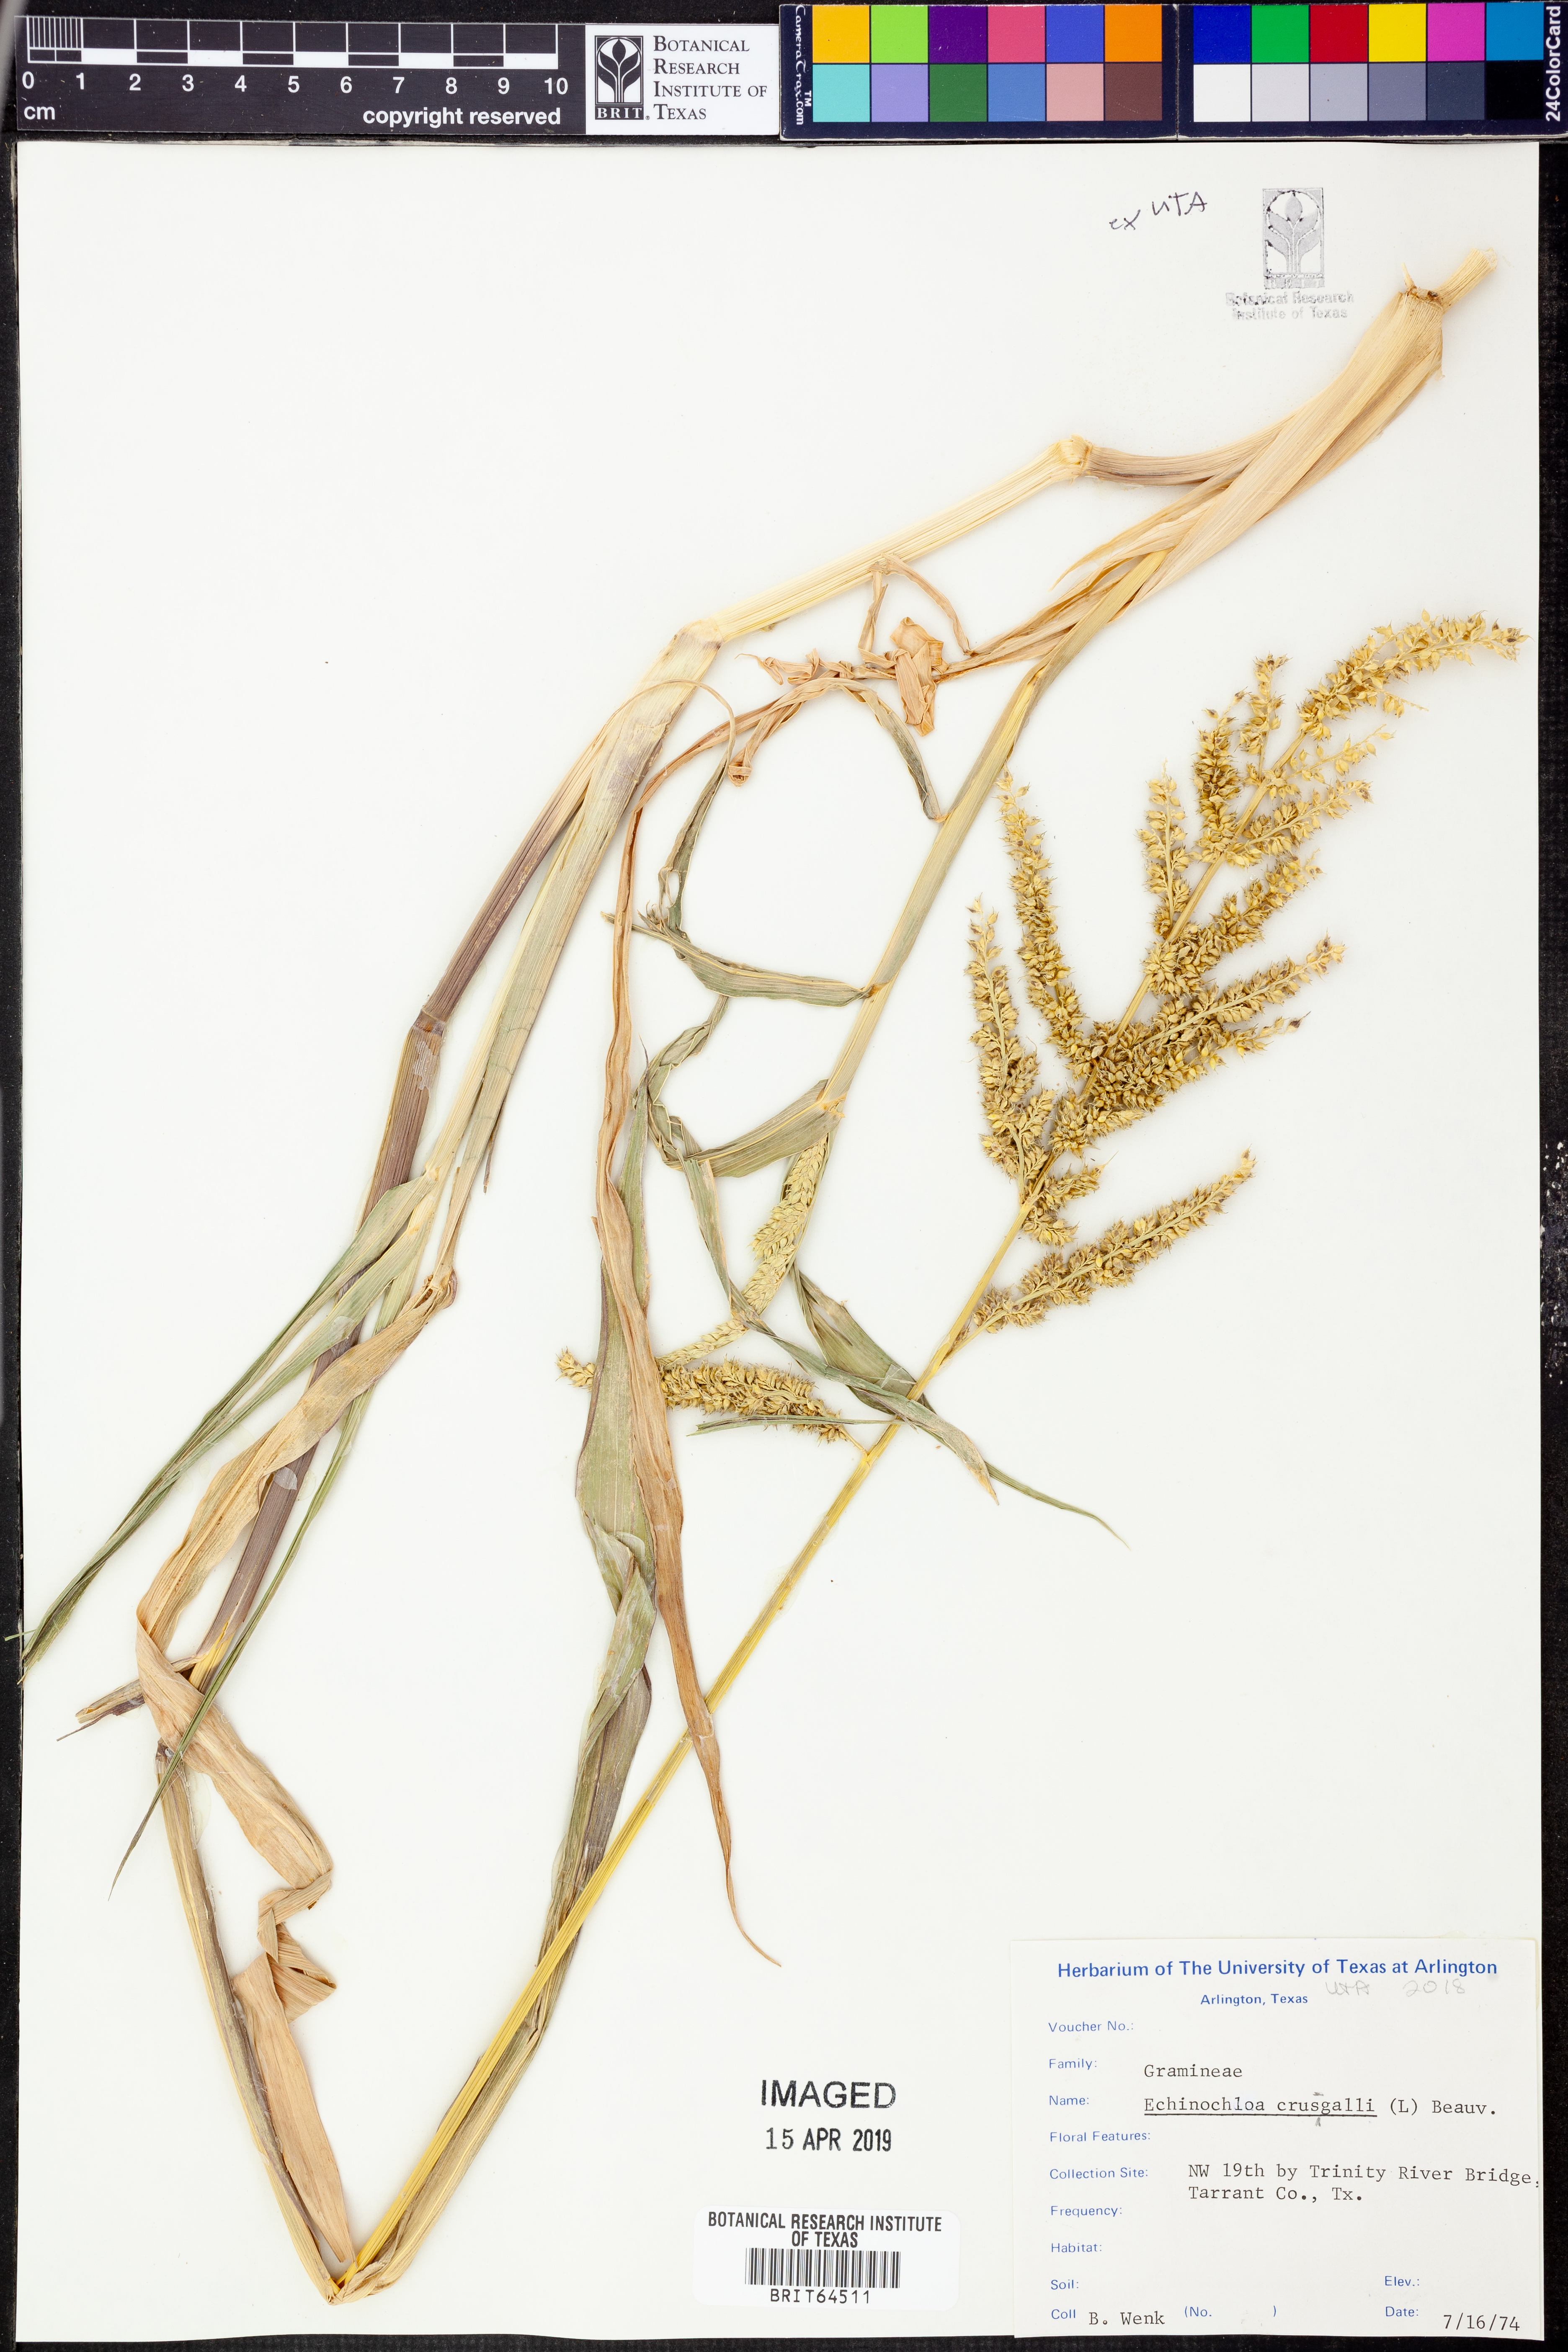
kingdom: Plantae
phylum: Tracheophyta
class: Liliopsida
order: Poales
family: Poaceae
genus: Echinochloa
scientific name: Echinochloa crus-galli
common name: Cockspur
